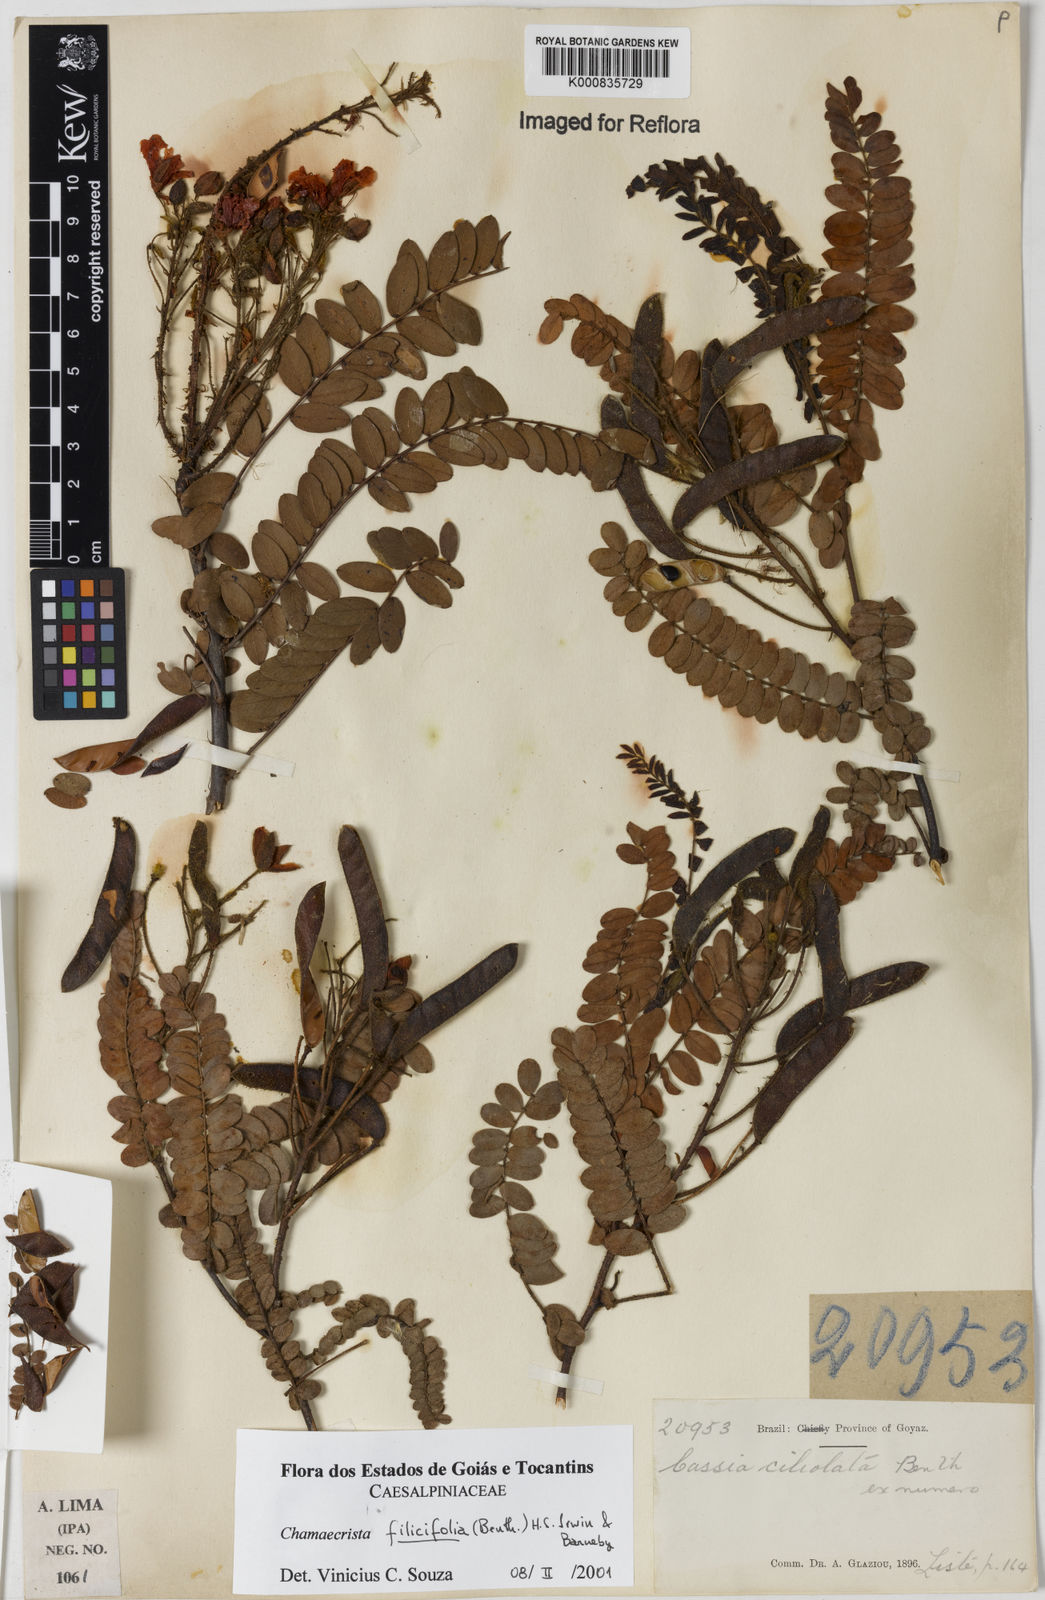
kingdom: Plantae
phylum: Tracheophyta
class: Magnoliopsida
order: Fabales
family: Fabaceae
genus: Chamaecrista
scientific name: Chamaecrista filicifolia
